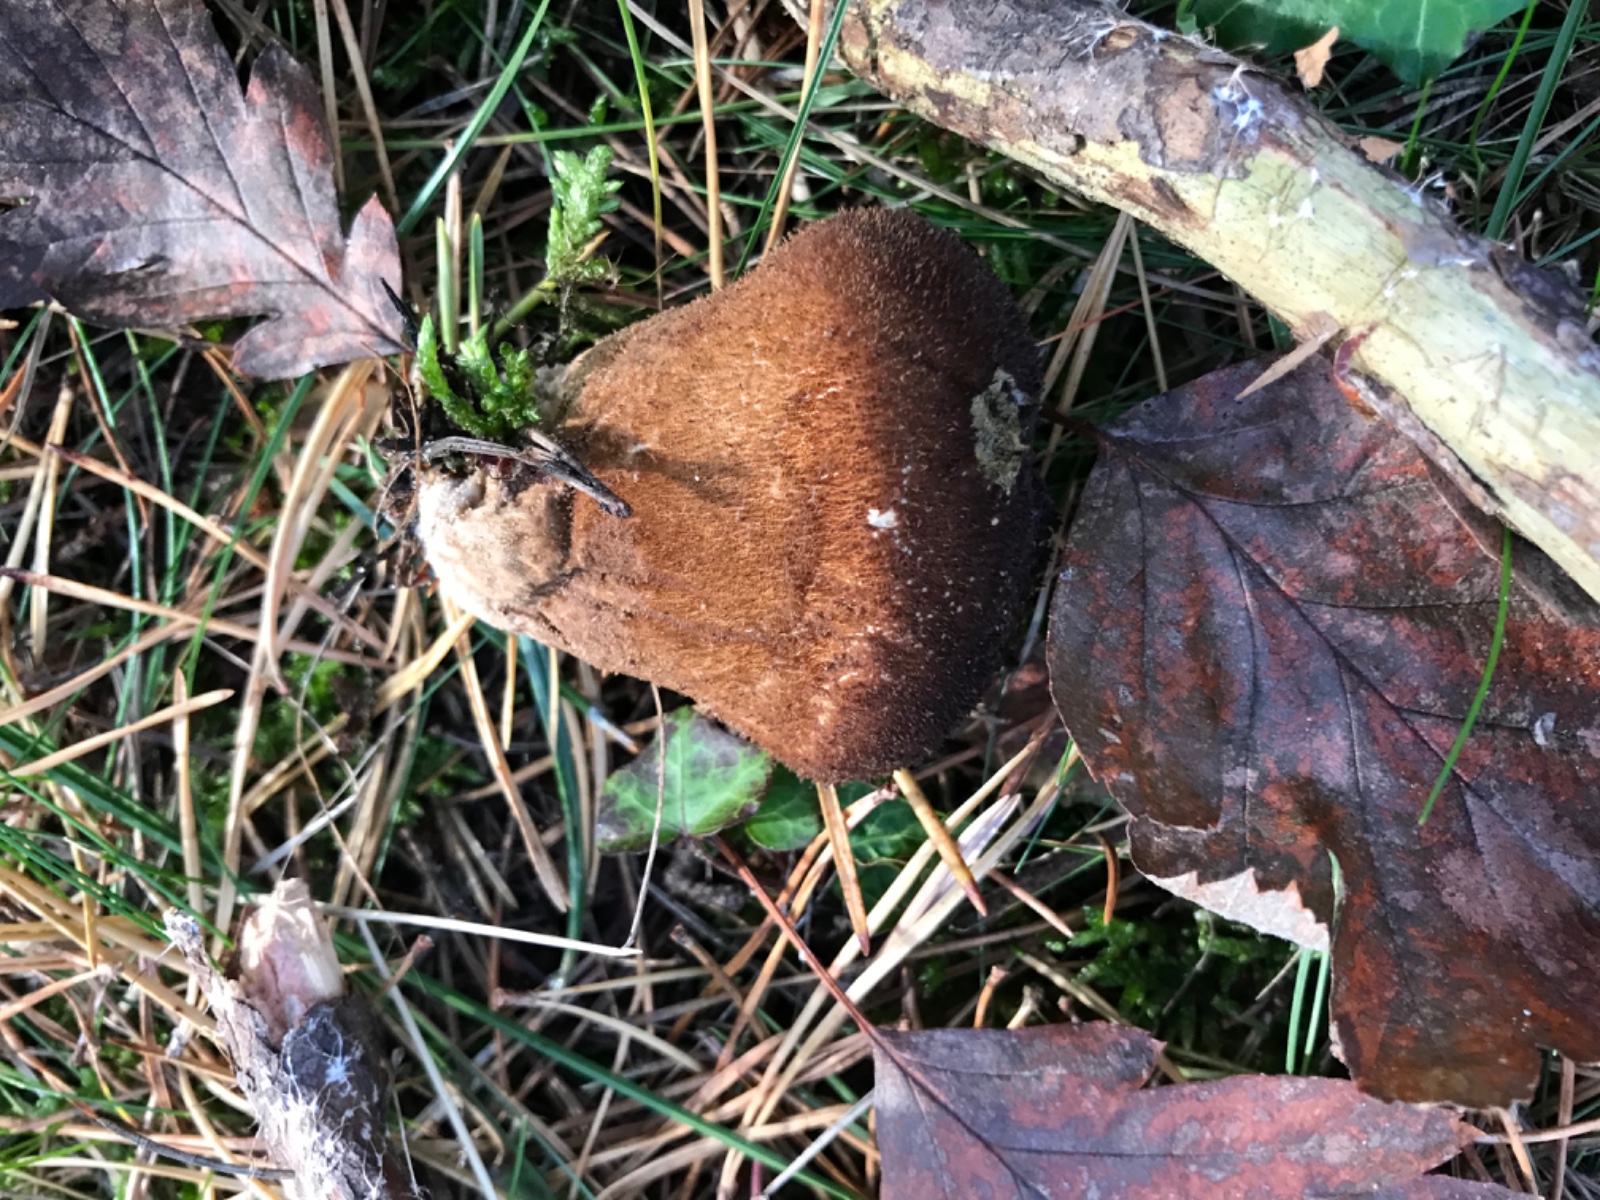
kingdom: Fungi
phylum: Basidiomycota
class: Agaricomycetes
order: Agaricales
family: Lycoperdaceae
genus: Lycoperdon
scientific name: Lycoperdon nigrescens
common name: sortagtig støvbold
